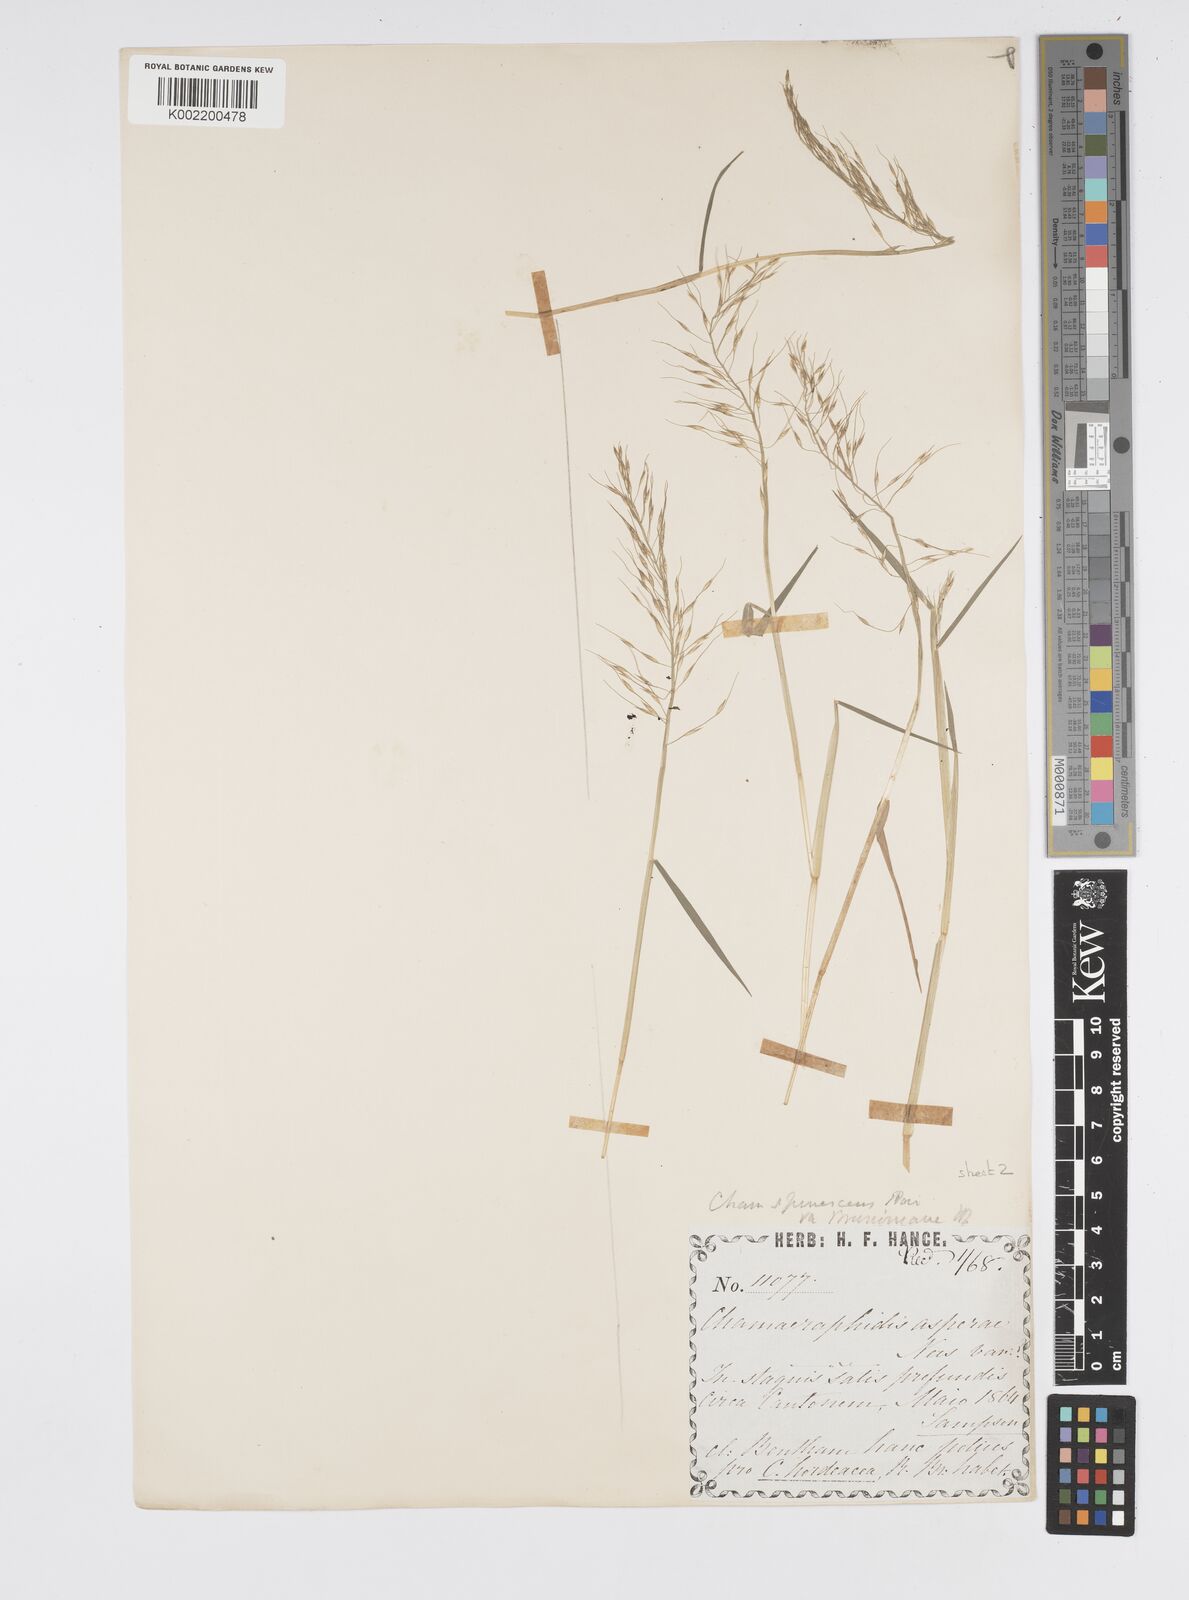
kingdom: Plantae
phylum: Tracheophyta
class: Liliopsida
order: Poales
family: Poaceae
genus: Pseudoraphis
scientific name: Pseudoraphis brunoniana
